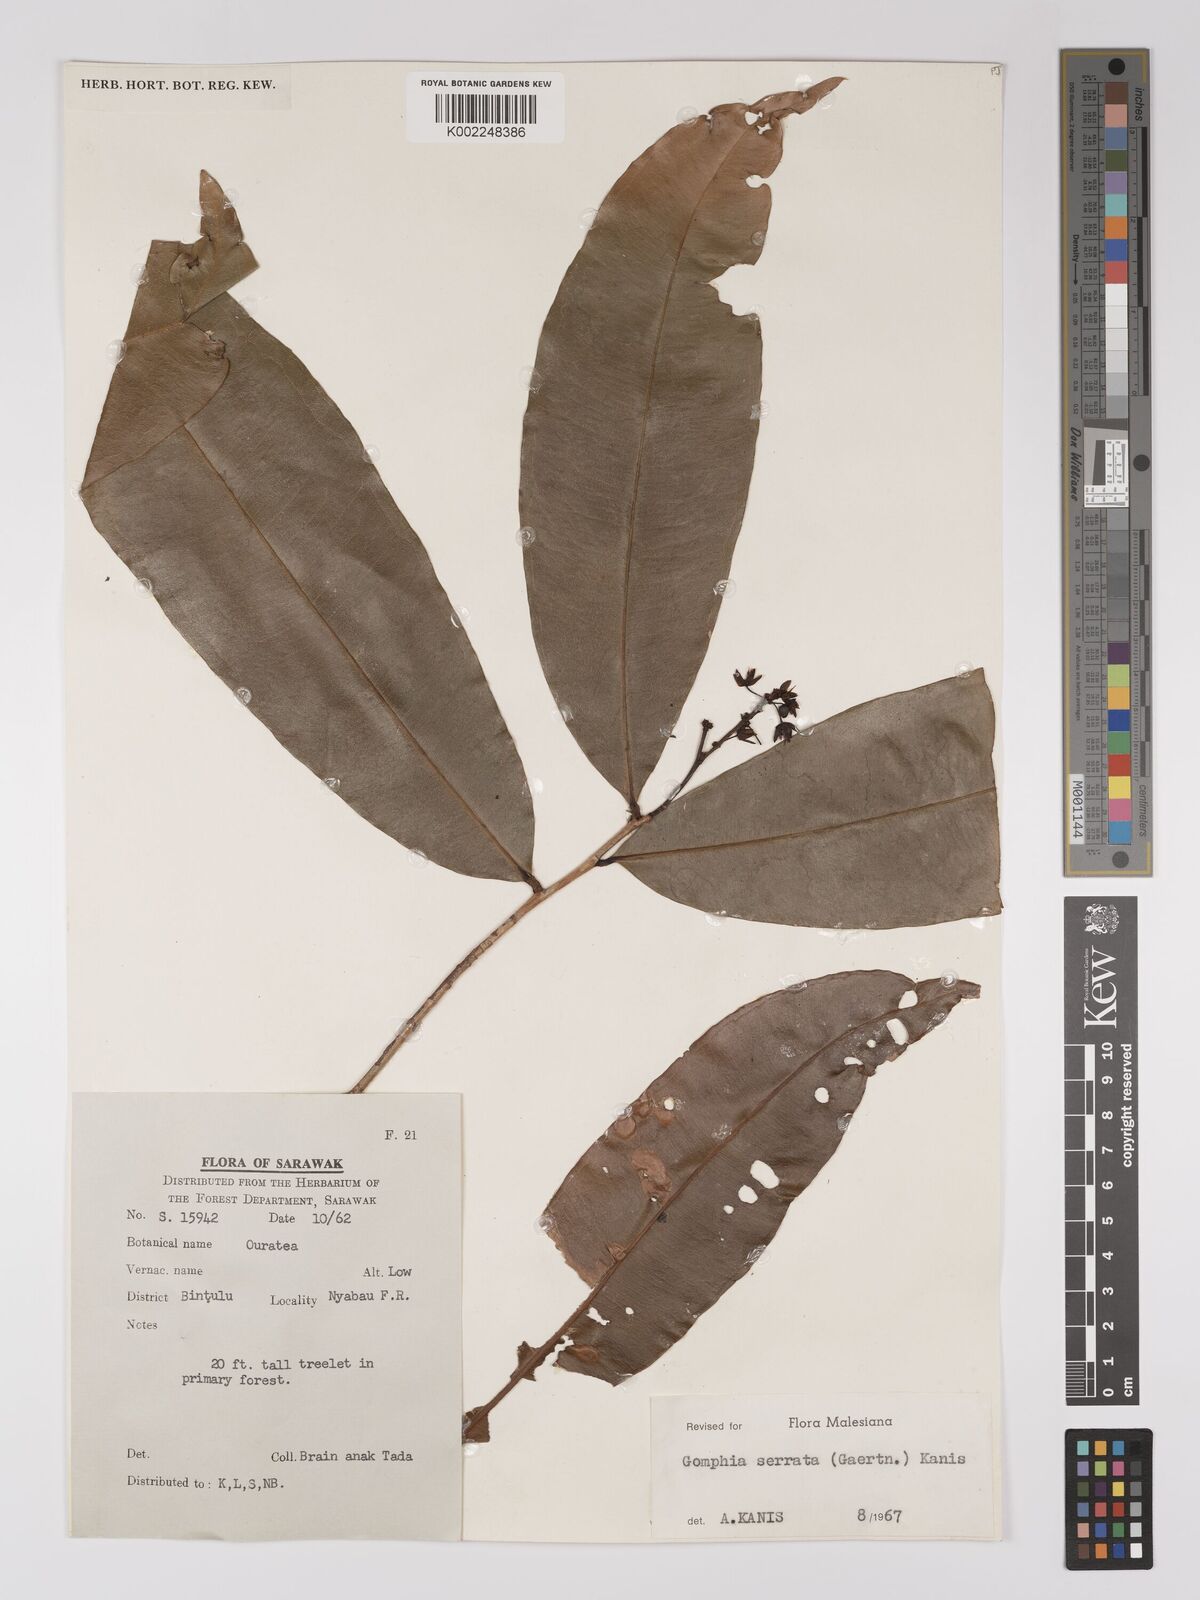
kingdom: Plantae
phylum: Tracheophyta
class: Magnoliopsida
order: Malpighiales
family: Ochnaceae
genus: Gomphia
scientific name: Gomphia serrata
